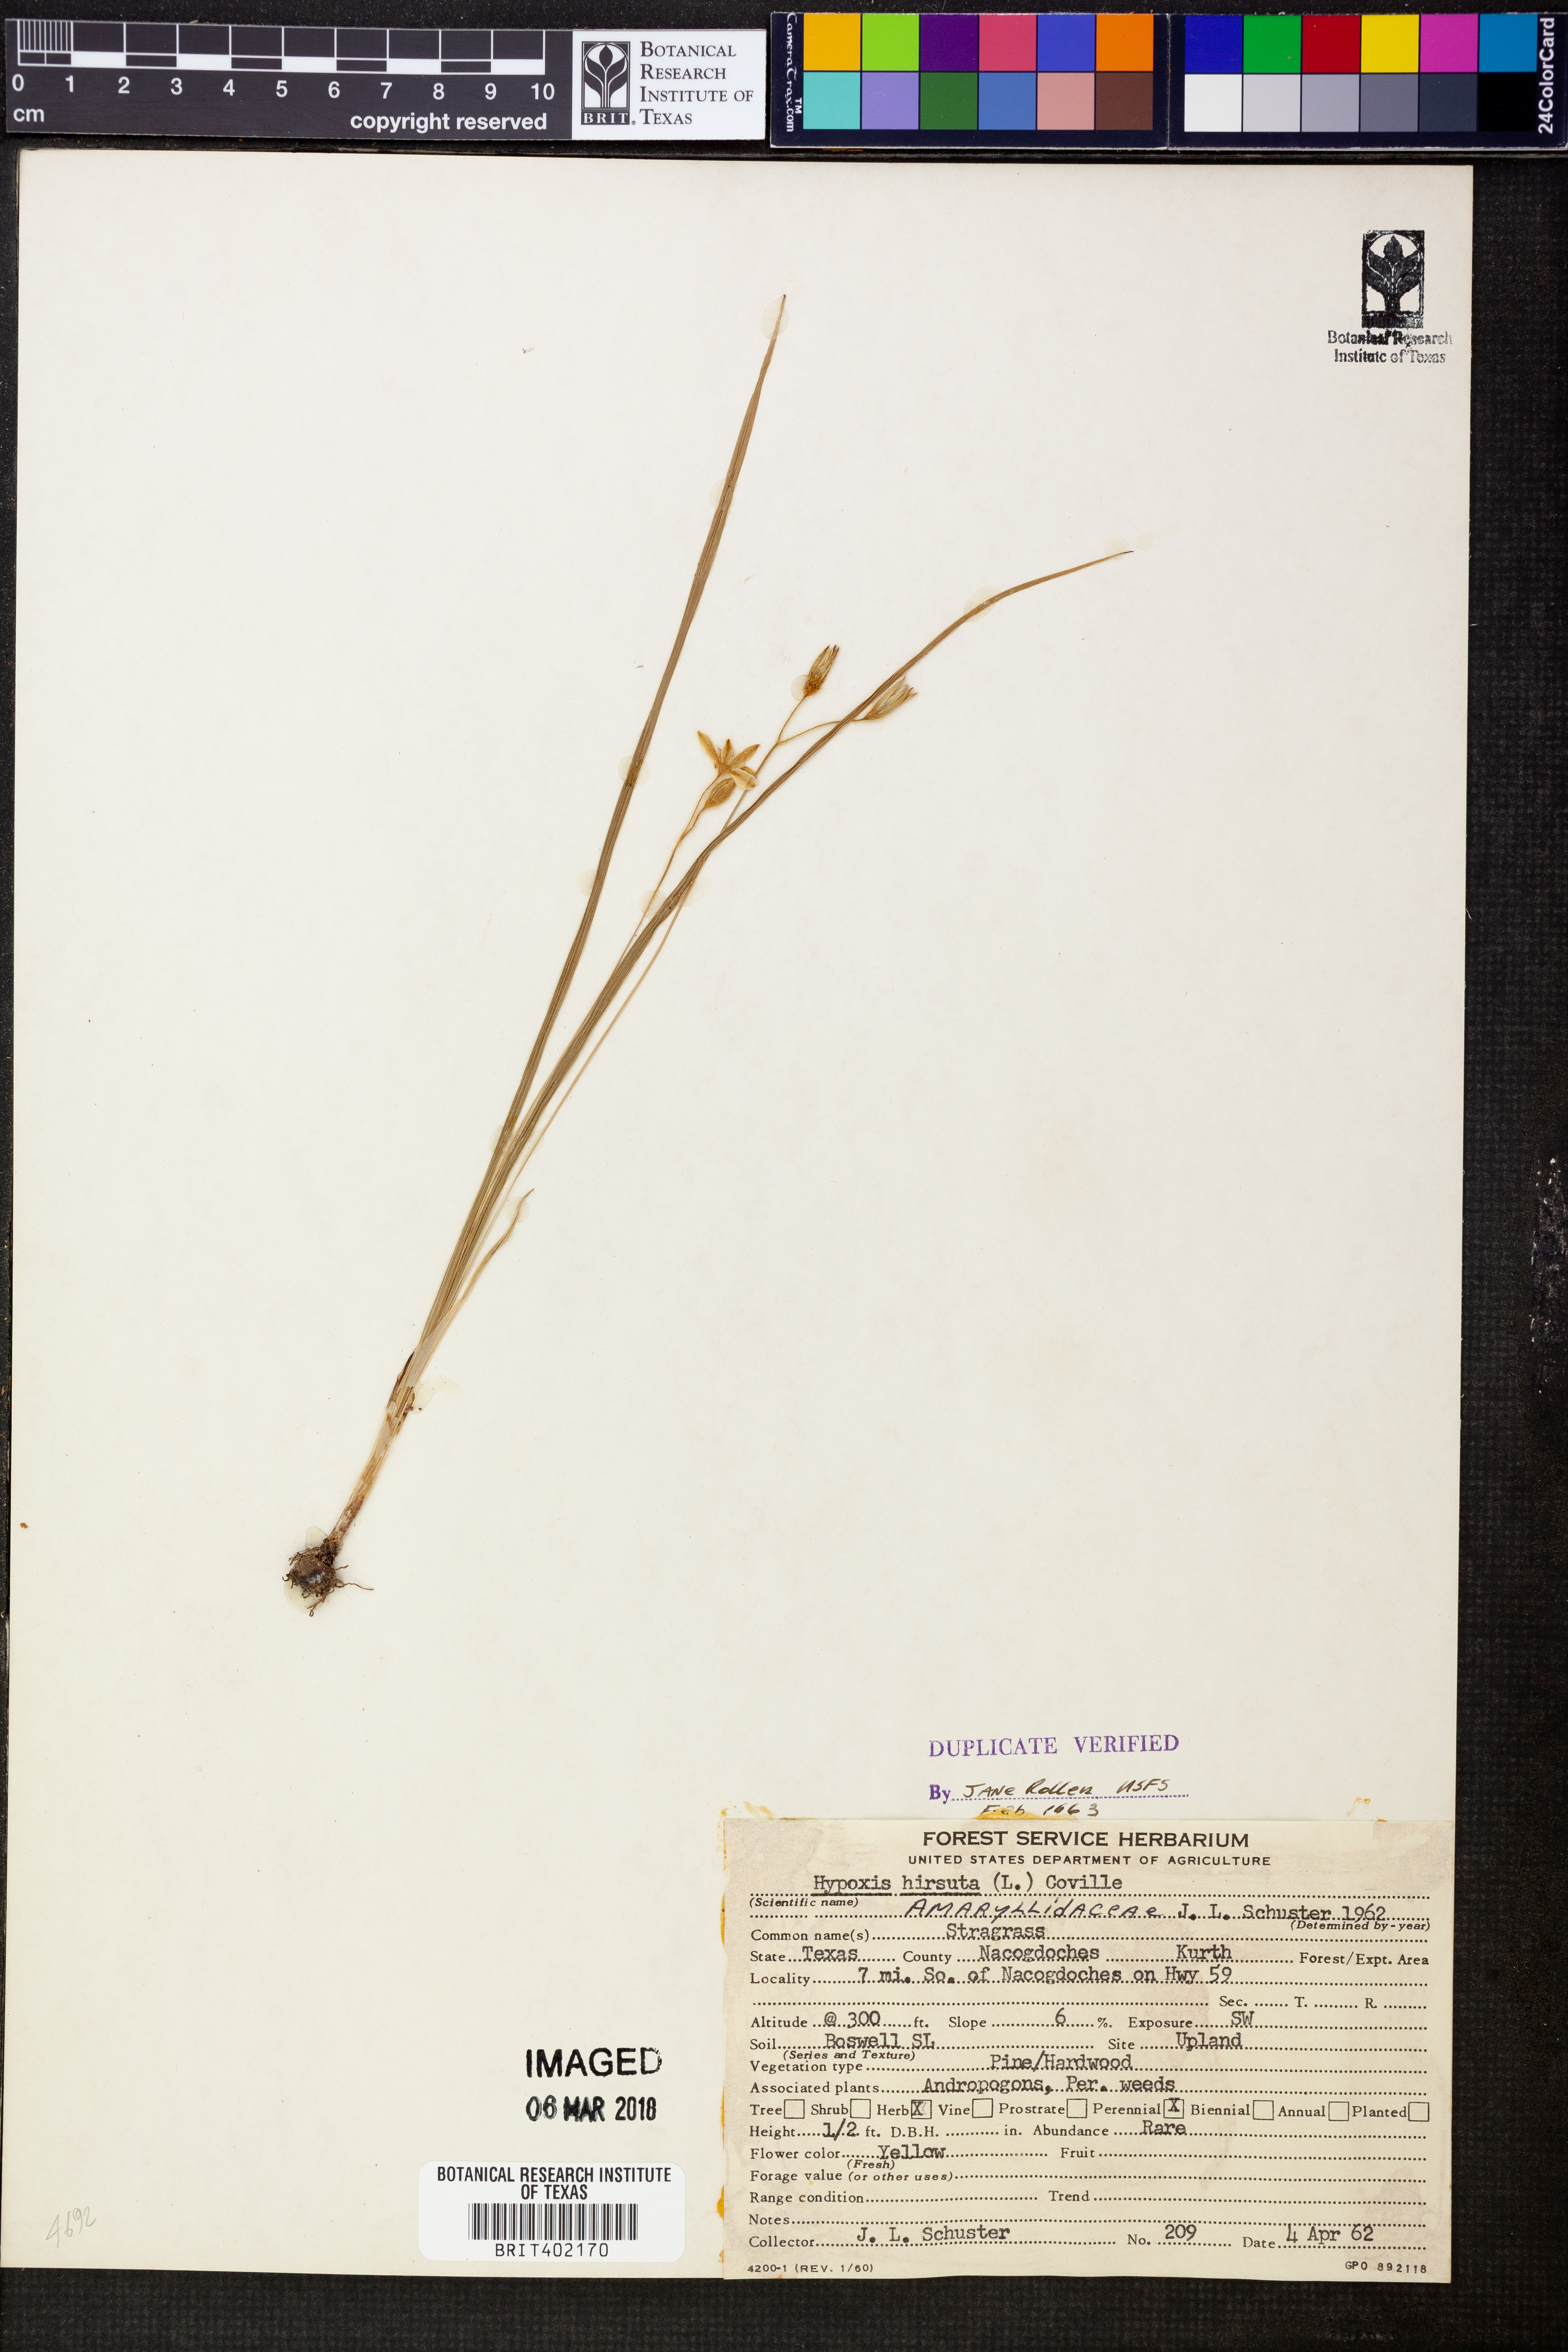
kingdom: Plantae
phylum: Tracheophyta
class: Liliopsida
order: Asparagales
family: Hypoxidaceae
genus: Hypoxis
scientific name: Hypoxis hirsuta
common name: Common goldstar
